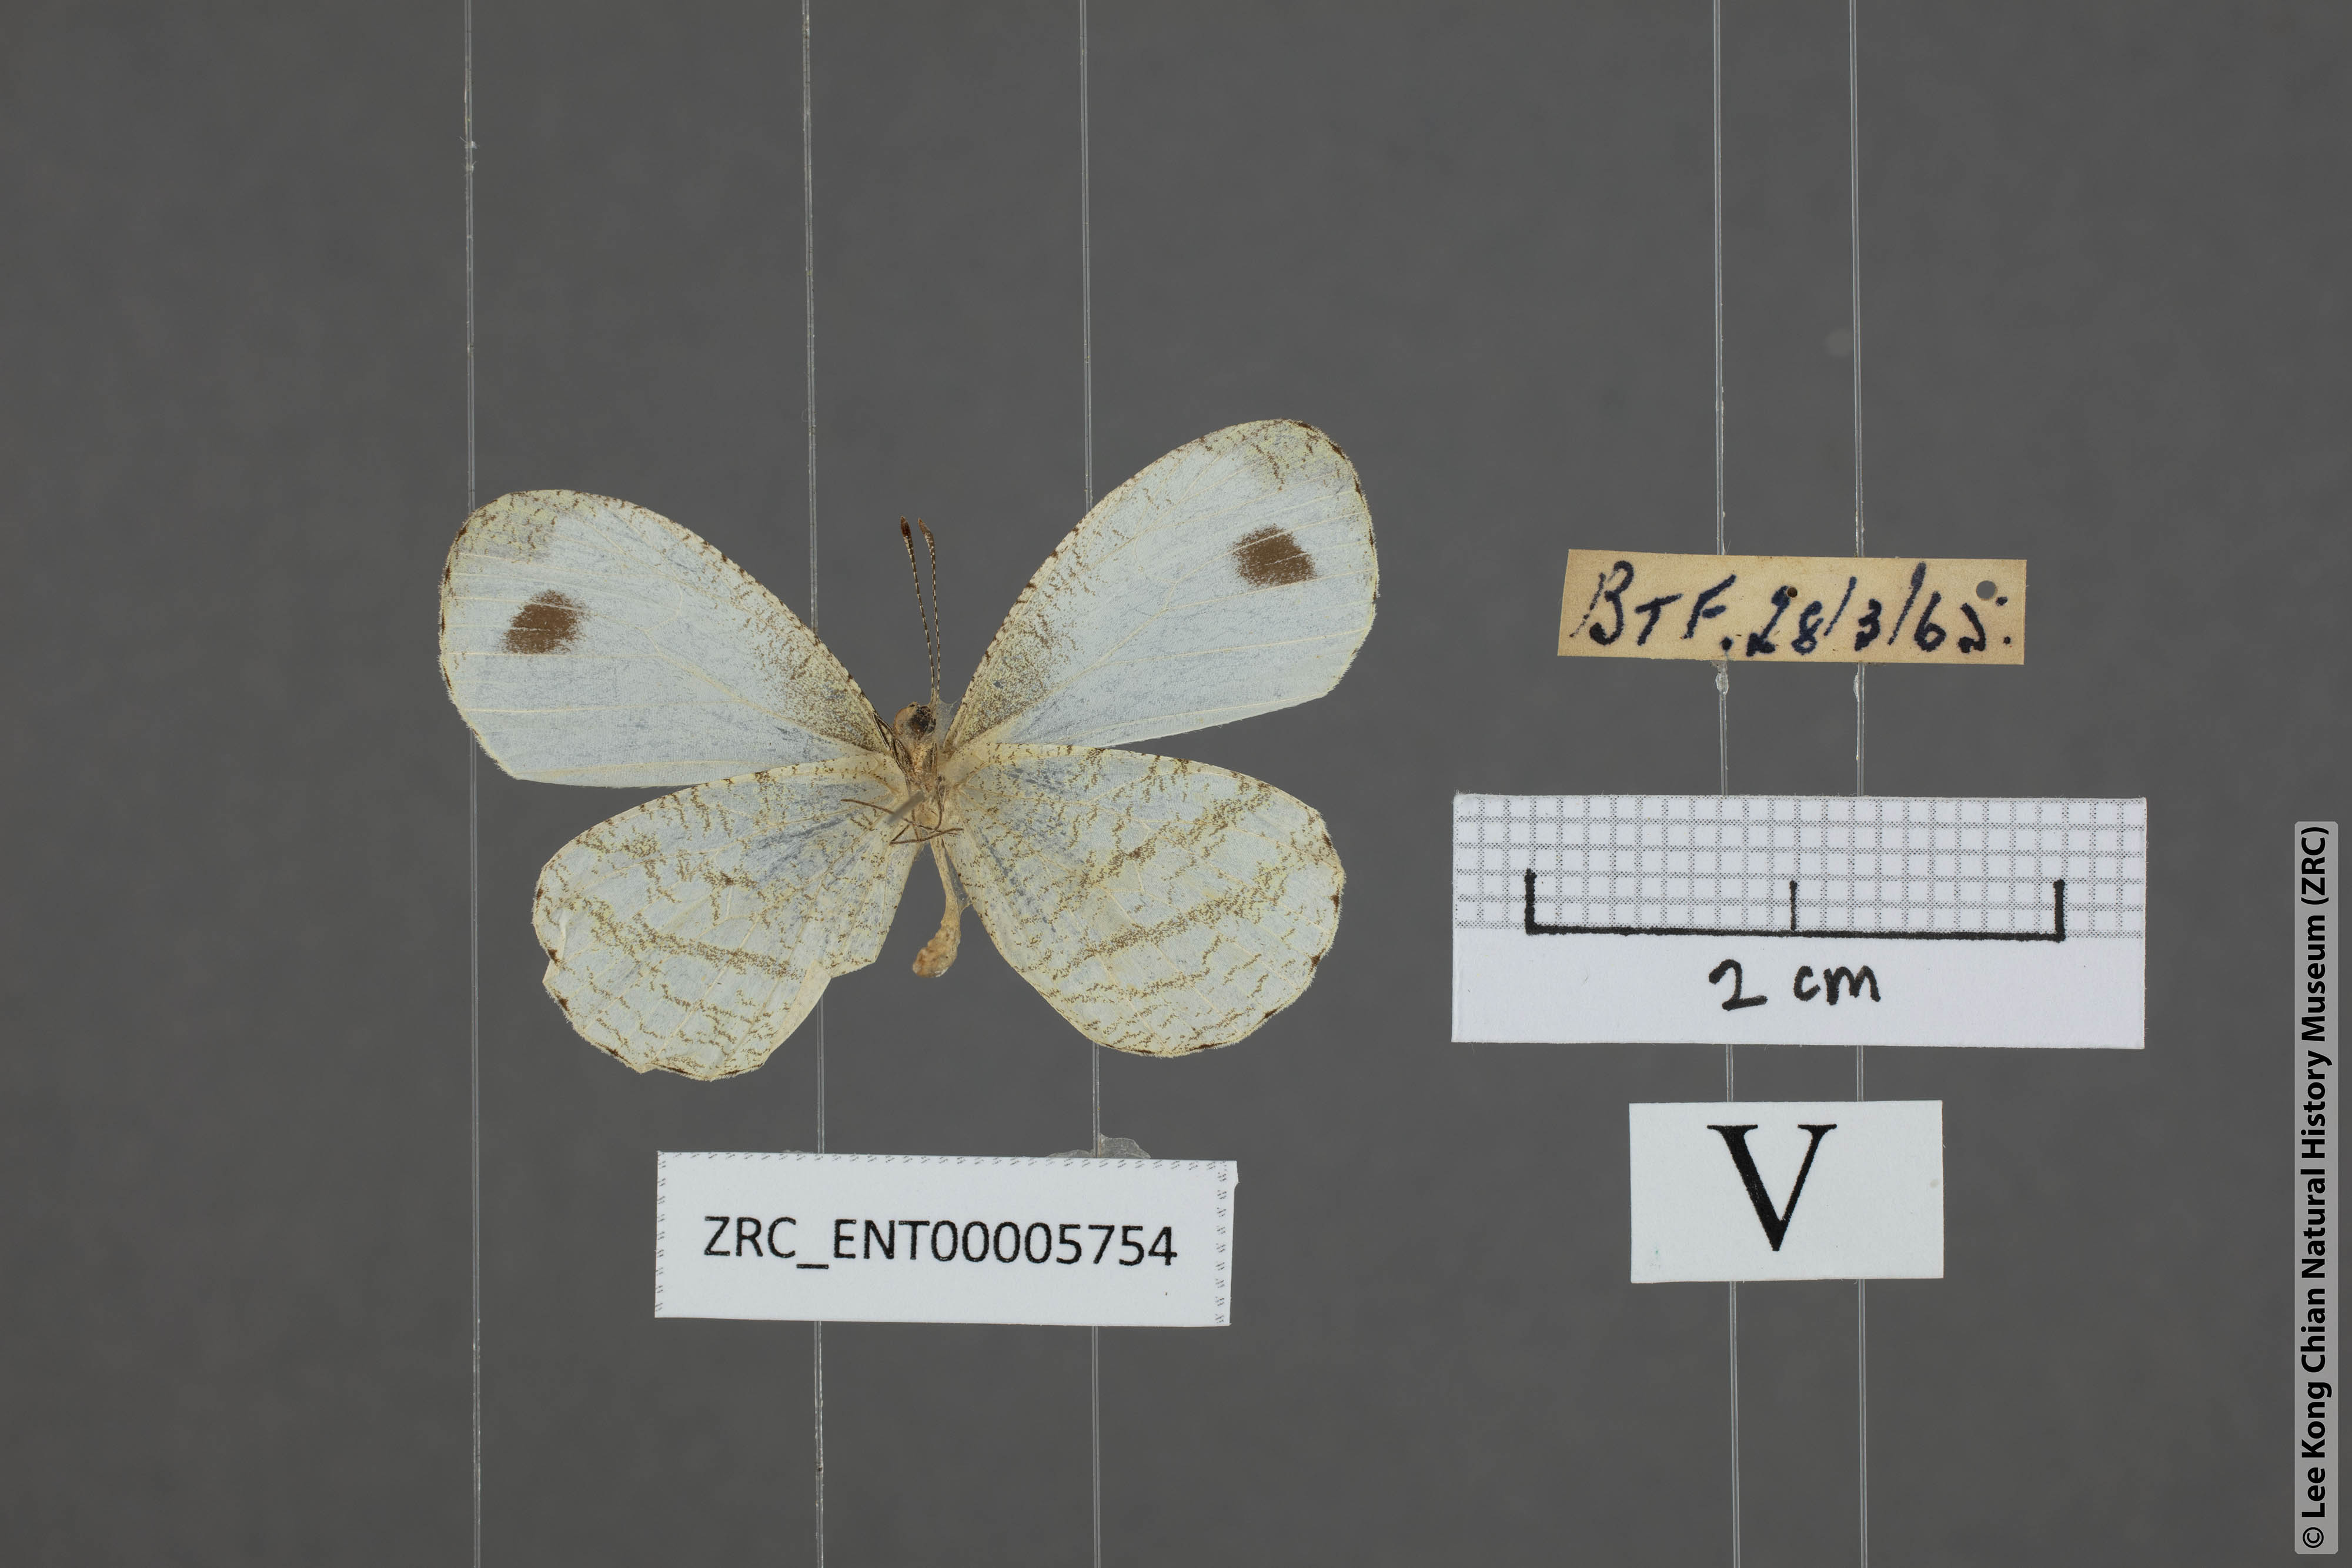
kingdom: Animalia
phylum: Arthropoda
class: Insecta
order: Lepidoptera
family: Pieridae
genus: Leptosia
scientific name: Leptosia nina
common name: Psyche
